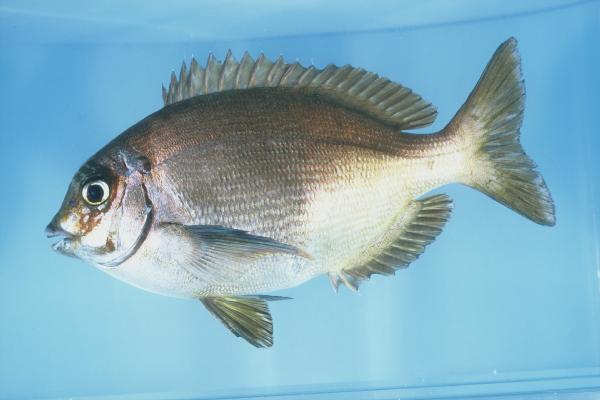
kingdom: Animalia
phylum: Chordata
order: Perciformes
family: Sparidae
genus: Polyamblyodon
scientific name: Polyamblyodon germanum
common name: German seabream
